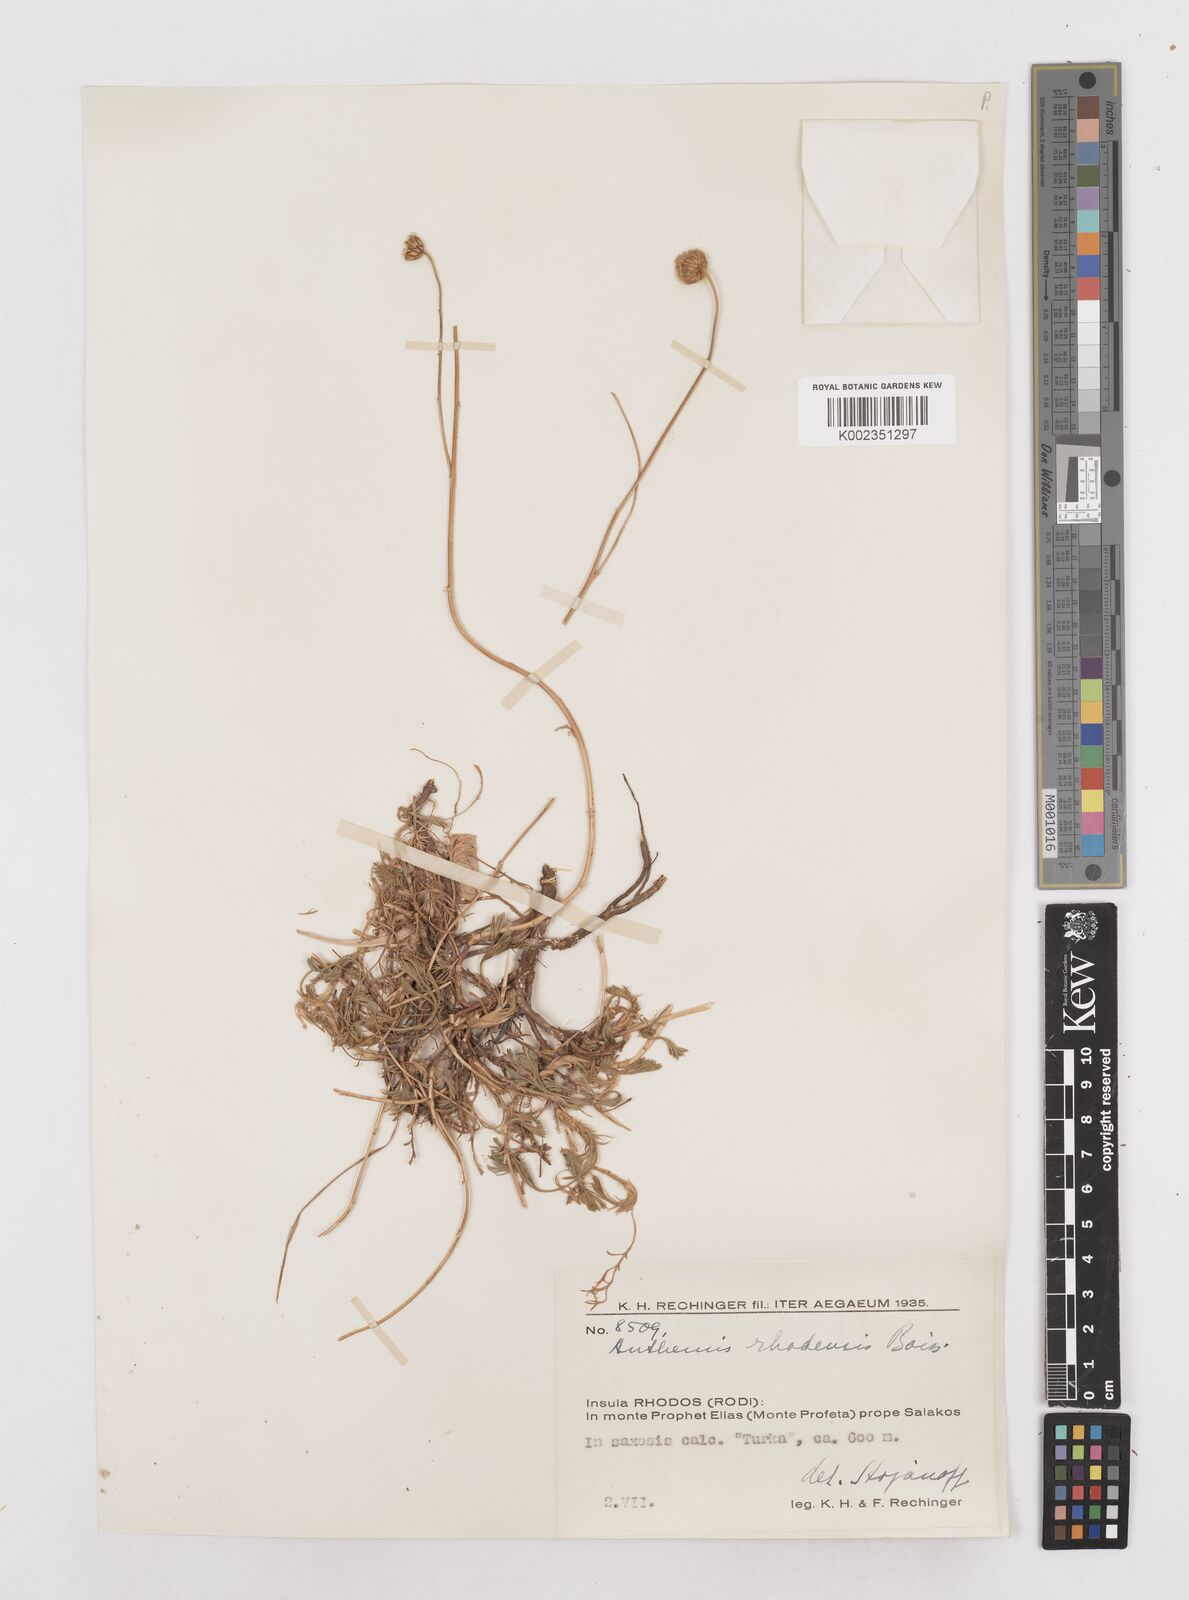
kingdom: Plantae
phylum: Tracheophyta
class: Magnoliopsida
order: Asterales
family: Asteraceae
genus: Anthemis
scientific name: Anthemis rhodensis
